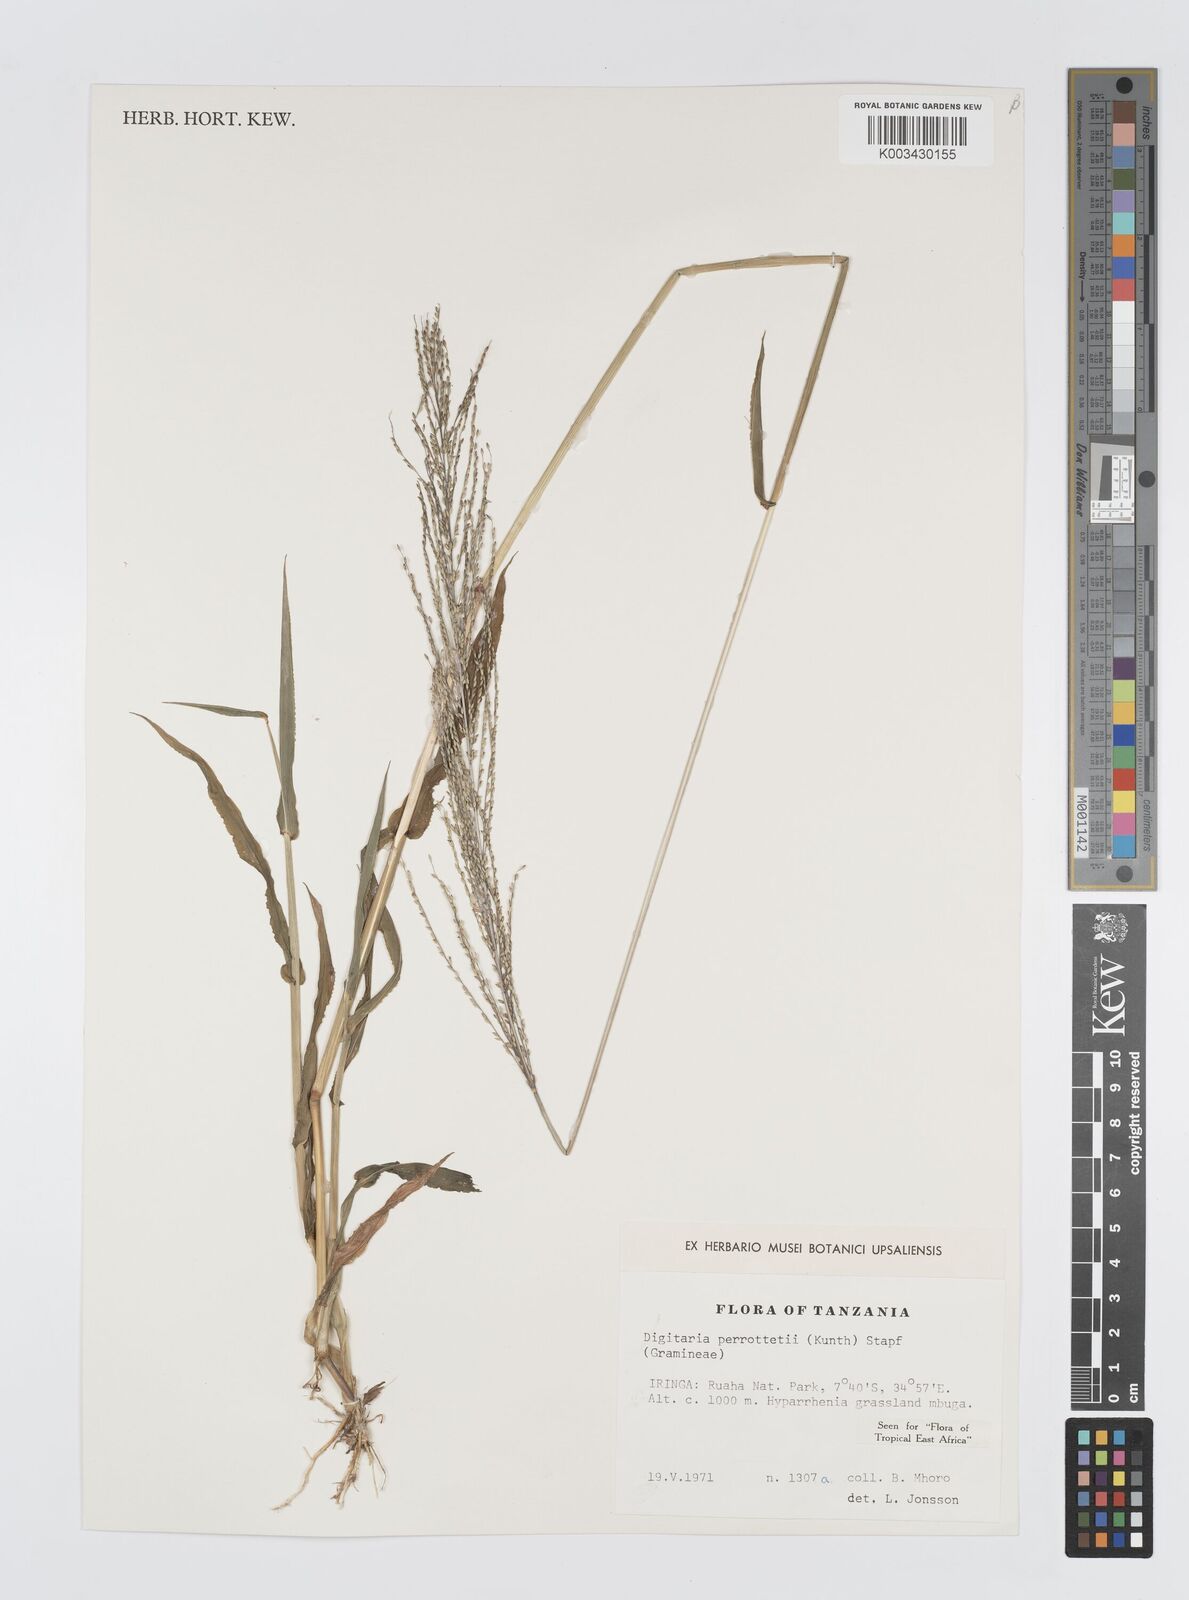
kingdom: Plantae
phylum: Tracheophyta
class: Liliopsida
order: Poales
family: Poaceae
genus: Digitaria
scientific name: Digitaria perrottetii
